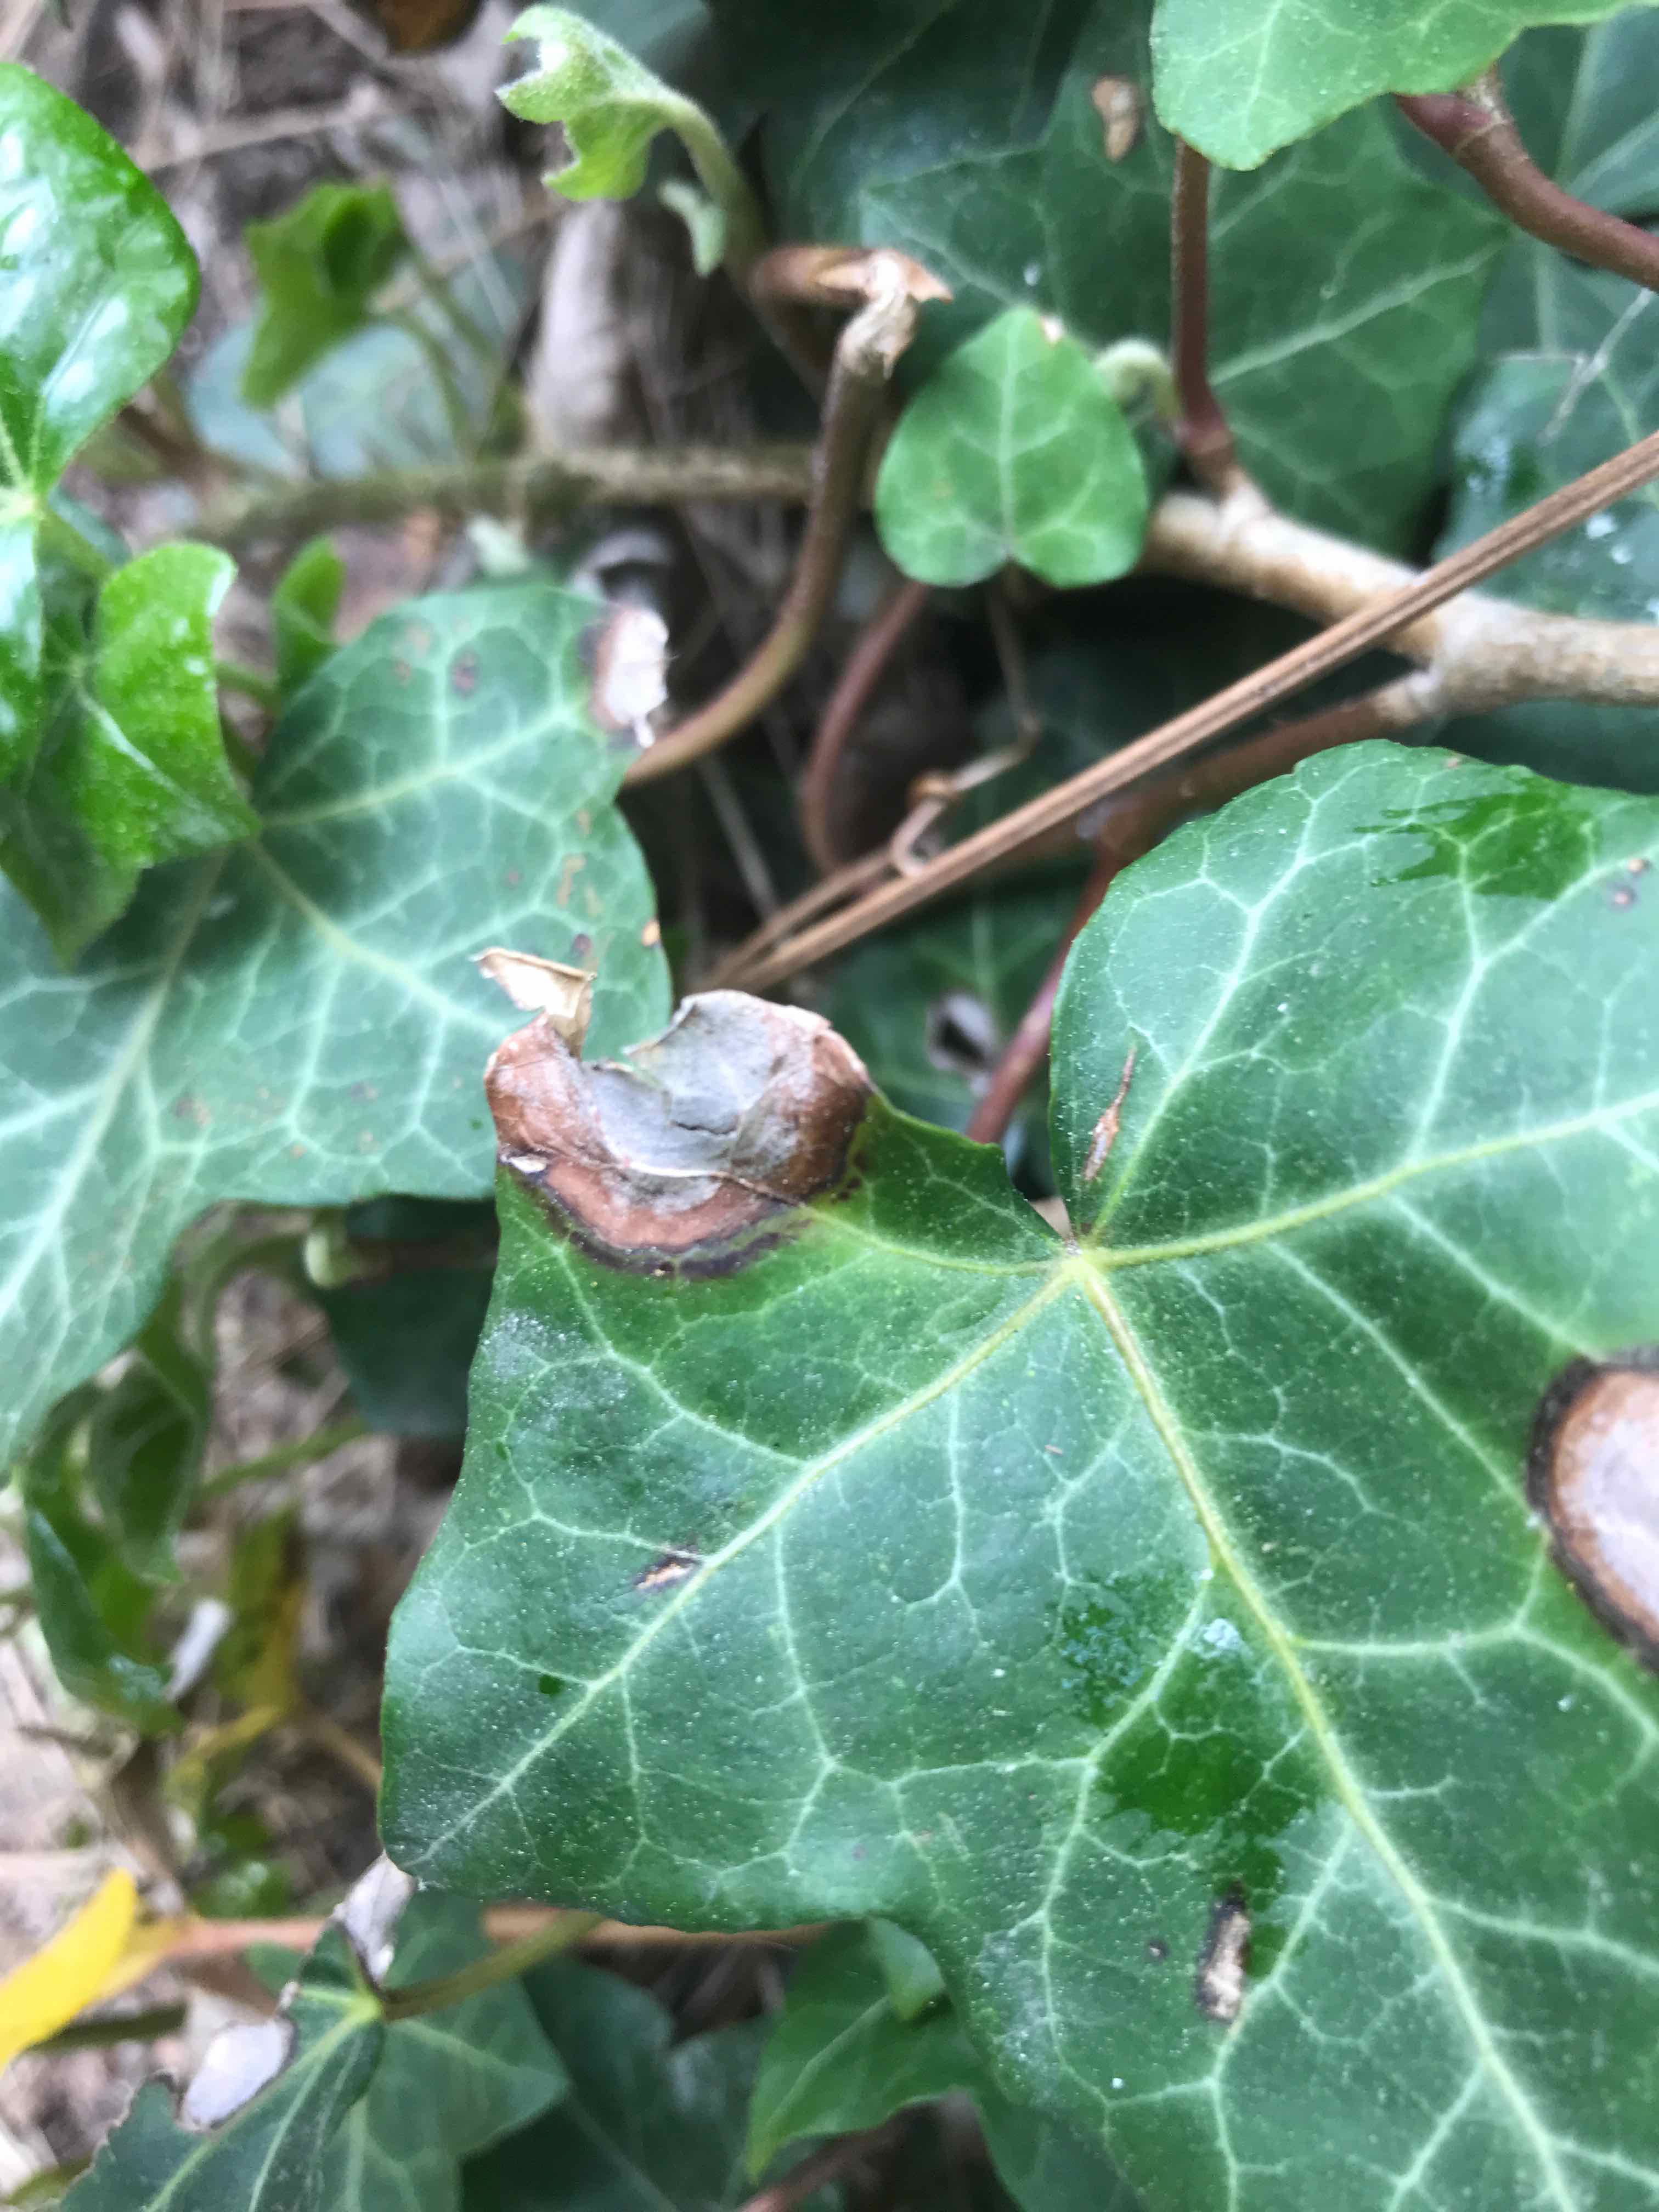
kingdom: Fungi
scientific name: Fungi
